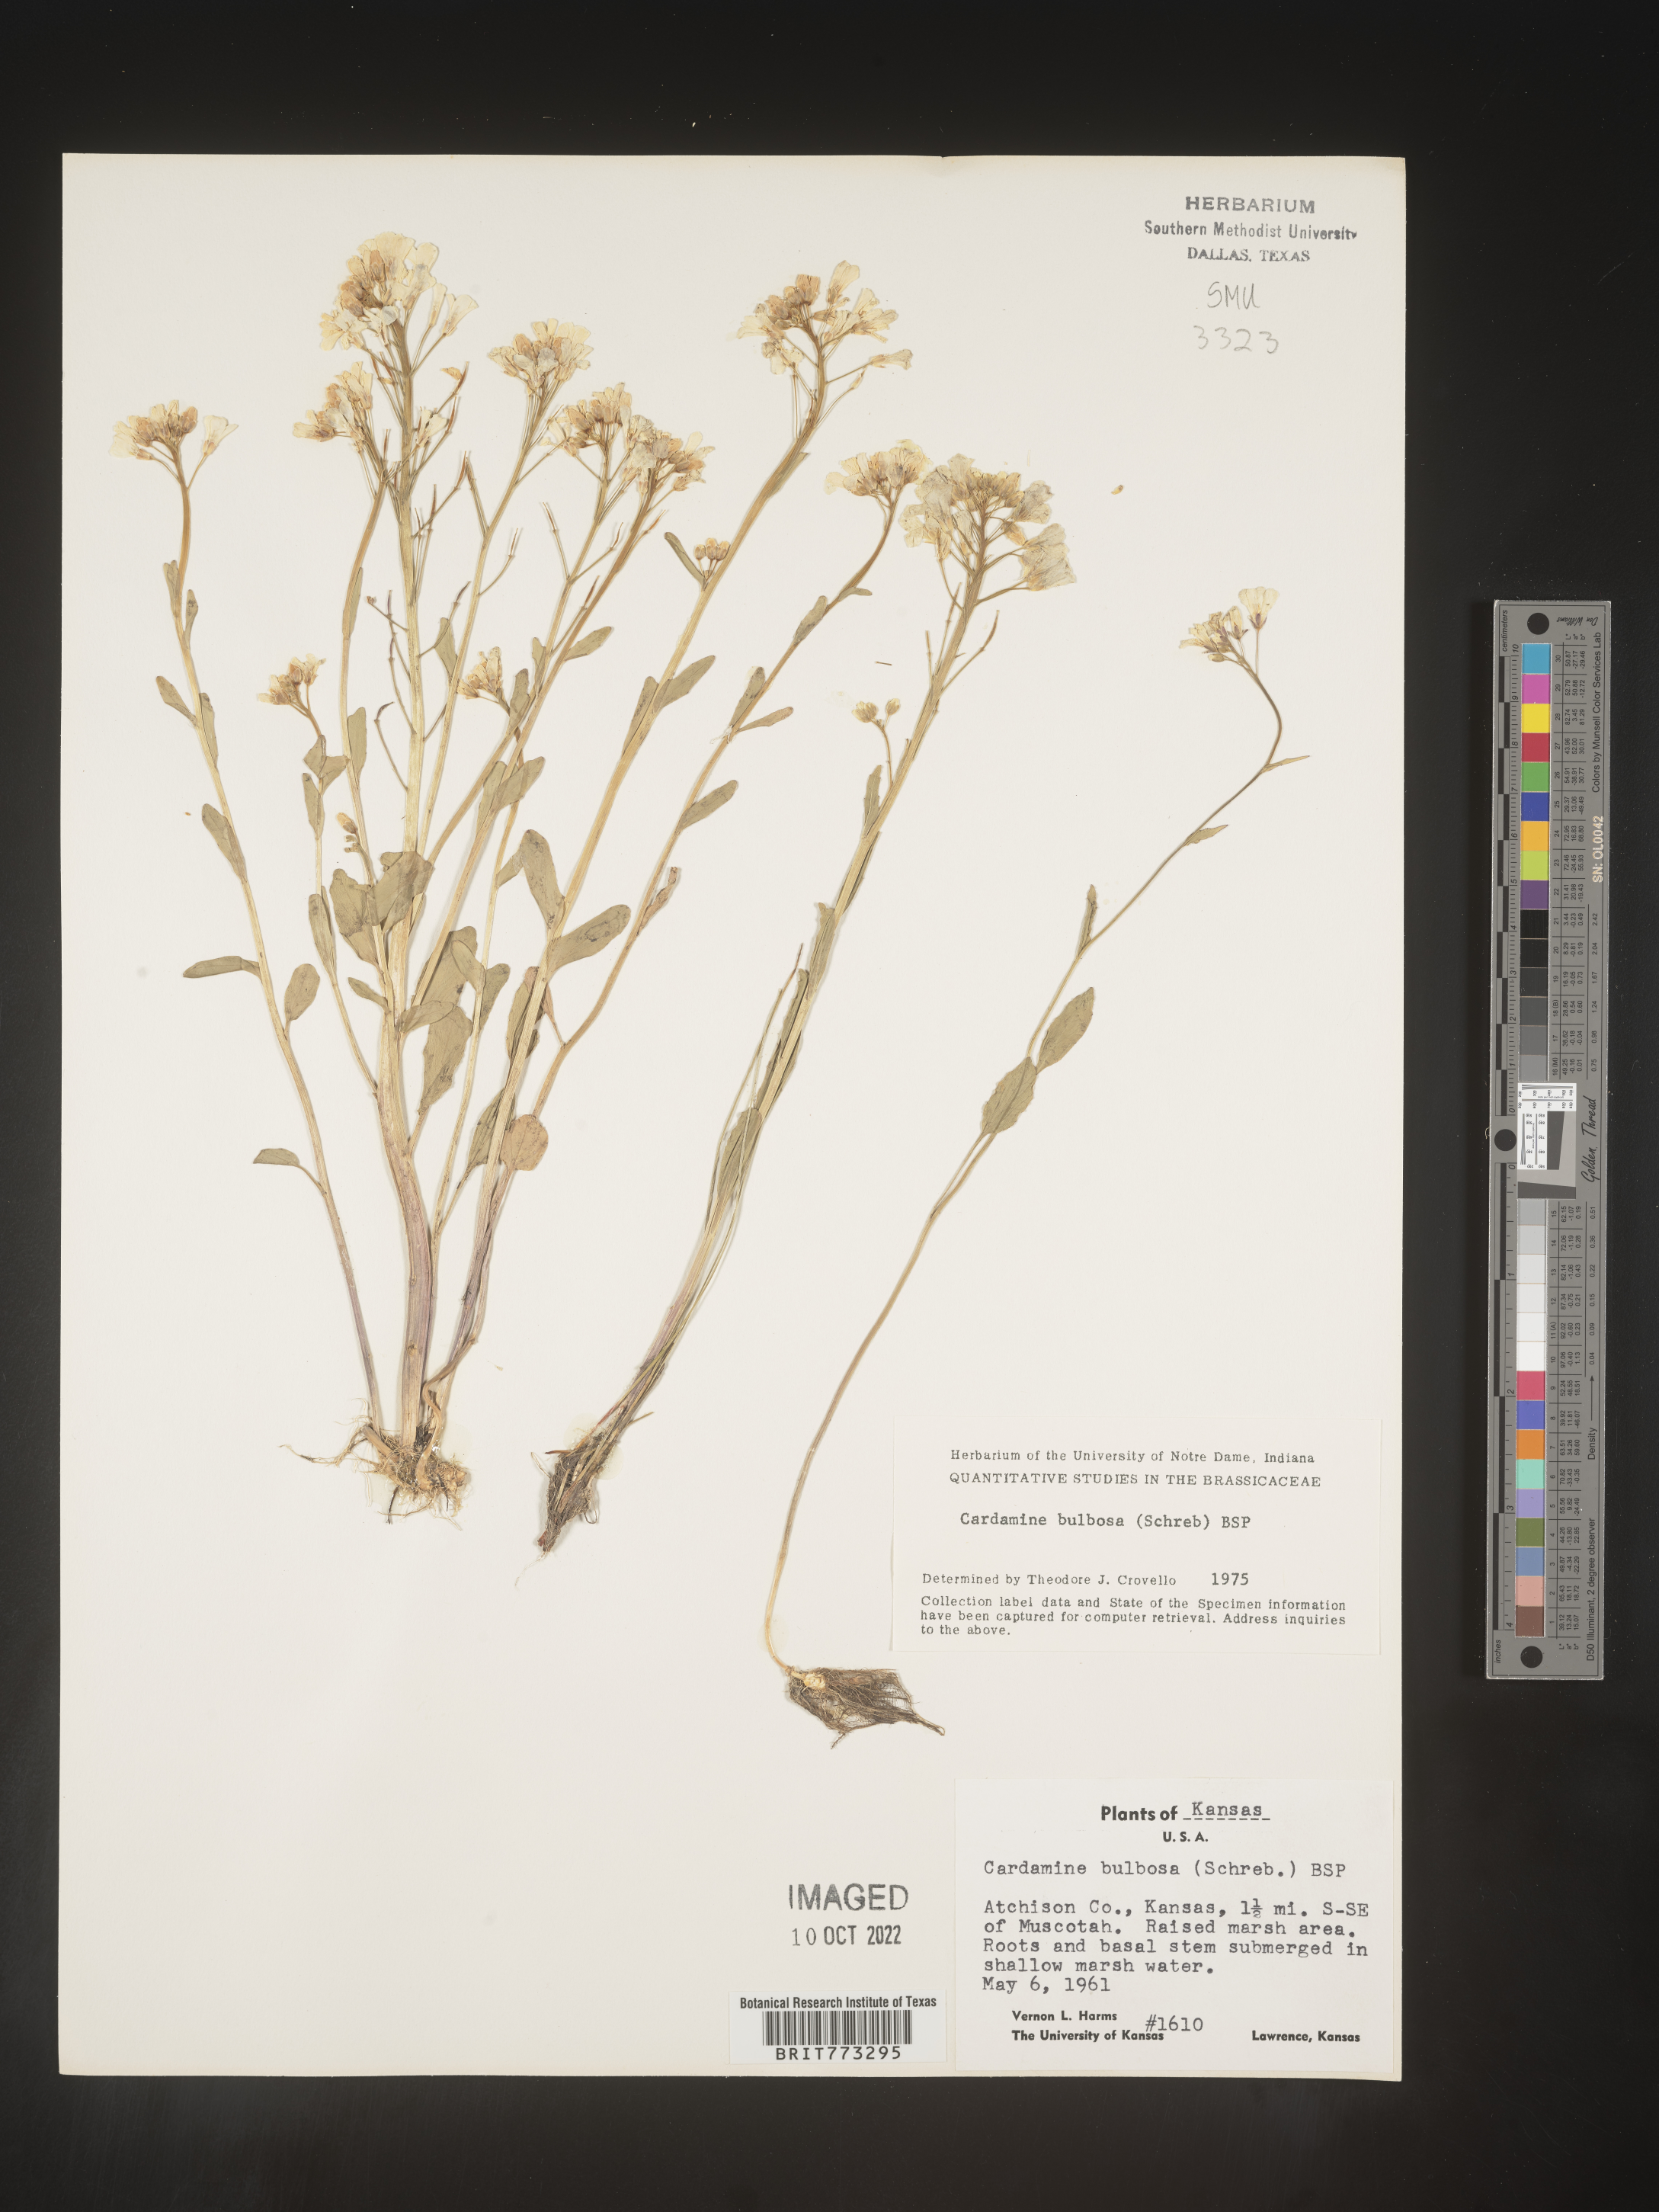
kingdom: Plantae
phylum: Tracheophyta
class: Magnoliopsida
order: Brassicales
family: Brassicaceae
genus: Cardamine
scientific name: Cardamine bulbosa
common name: Spring cress
